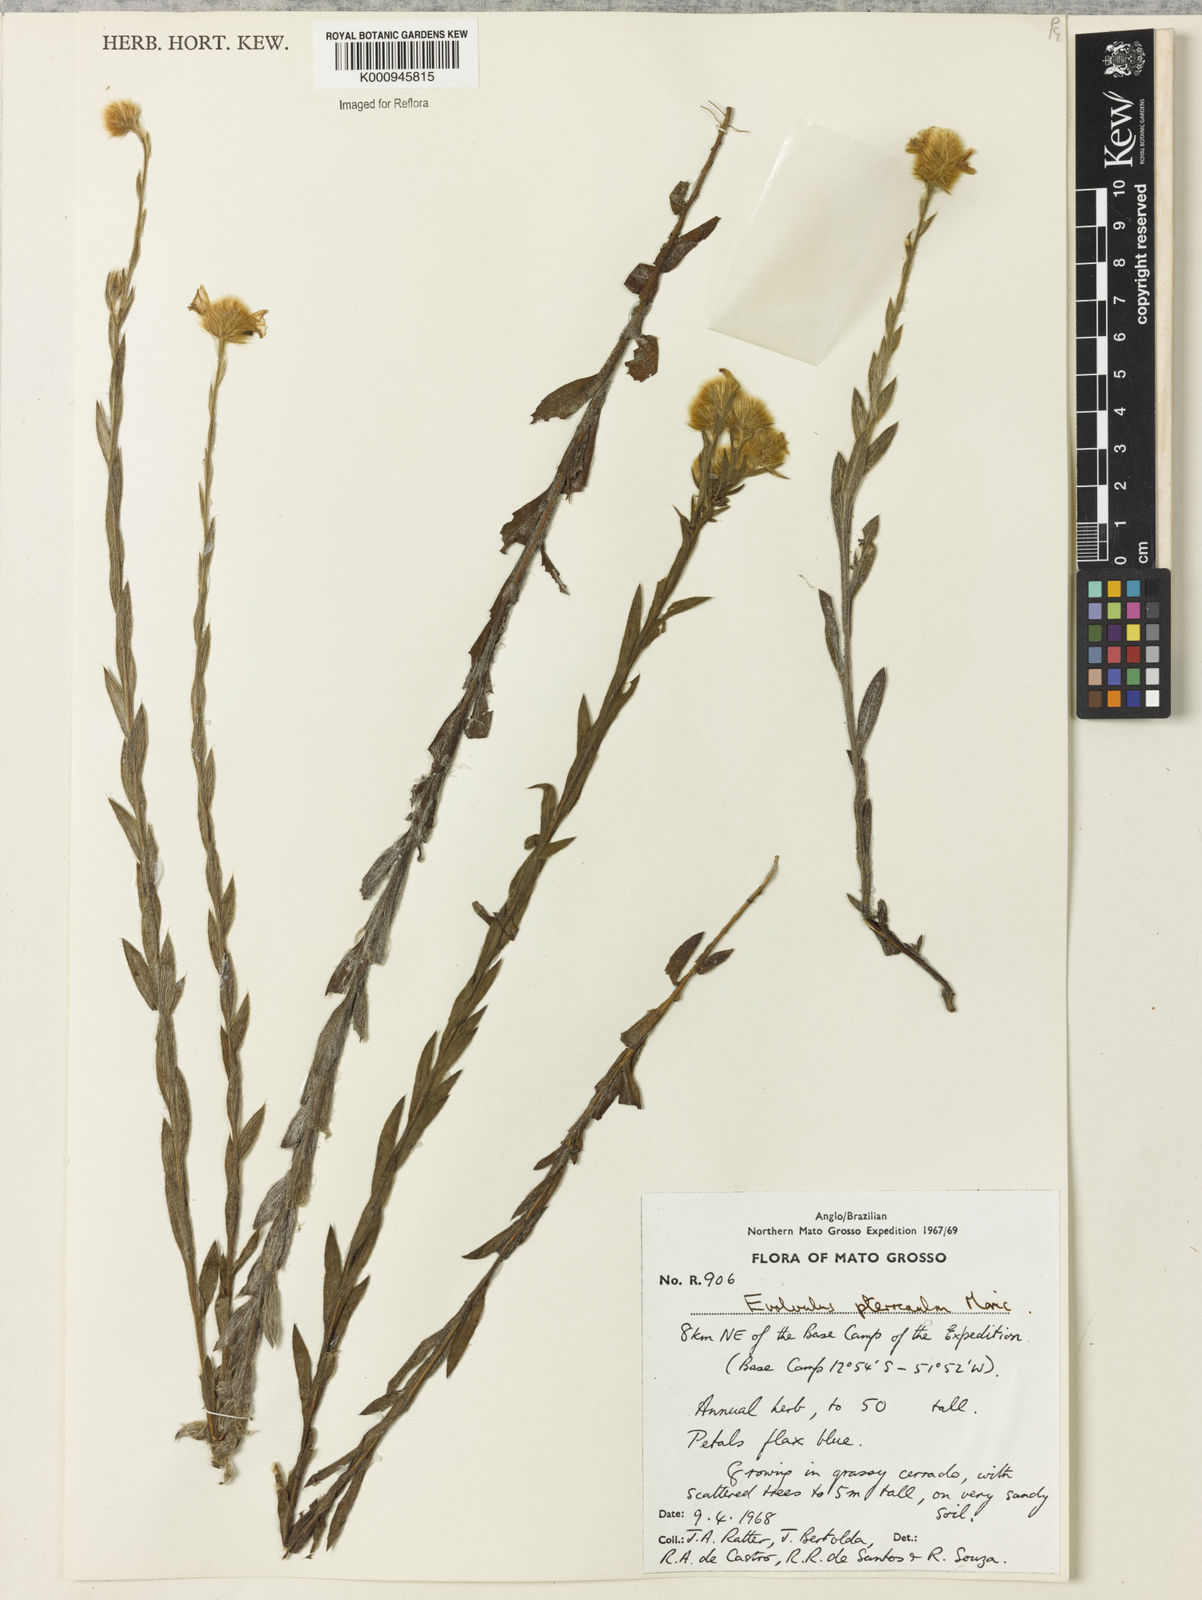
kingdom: Plantae
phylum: Tracheophyta
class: Magnoliopsida
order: Solanales
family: Convolvulaceae
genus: Evolvulus
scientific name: Evolvulus pterocaulon
